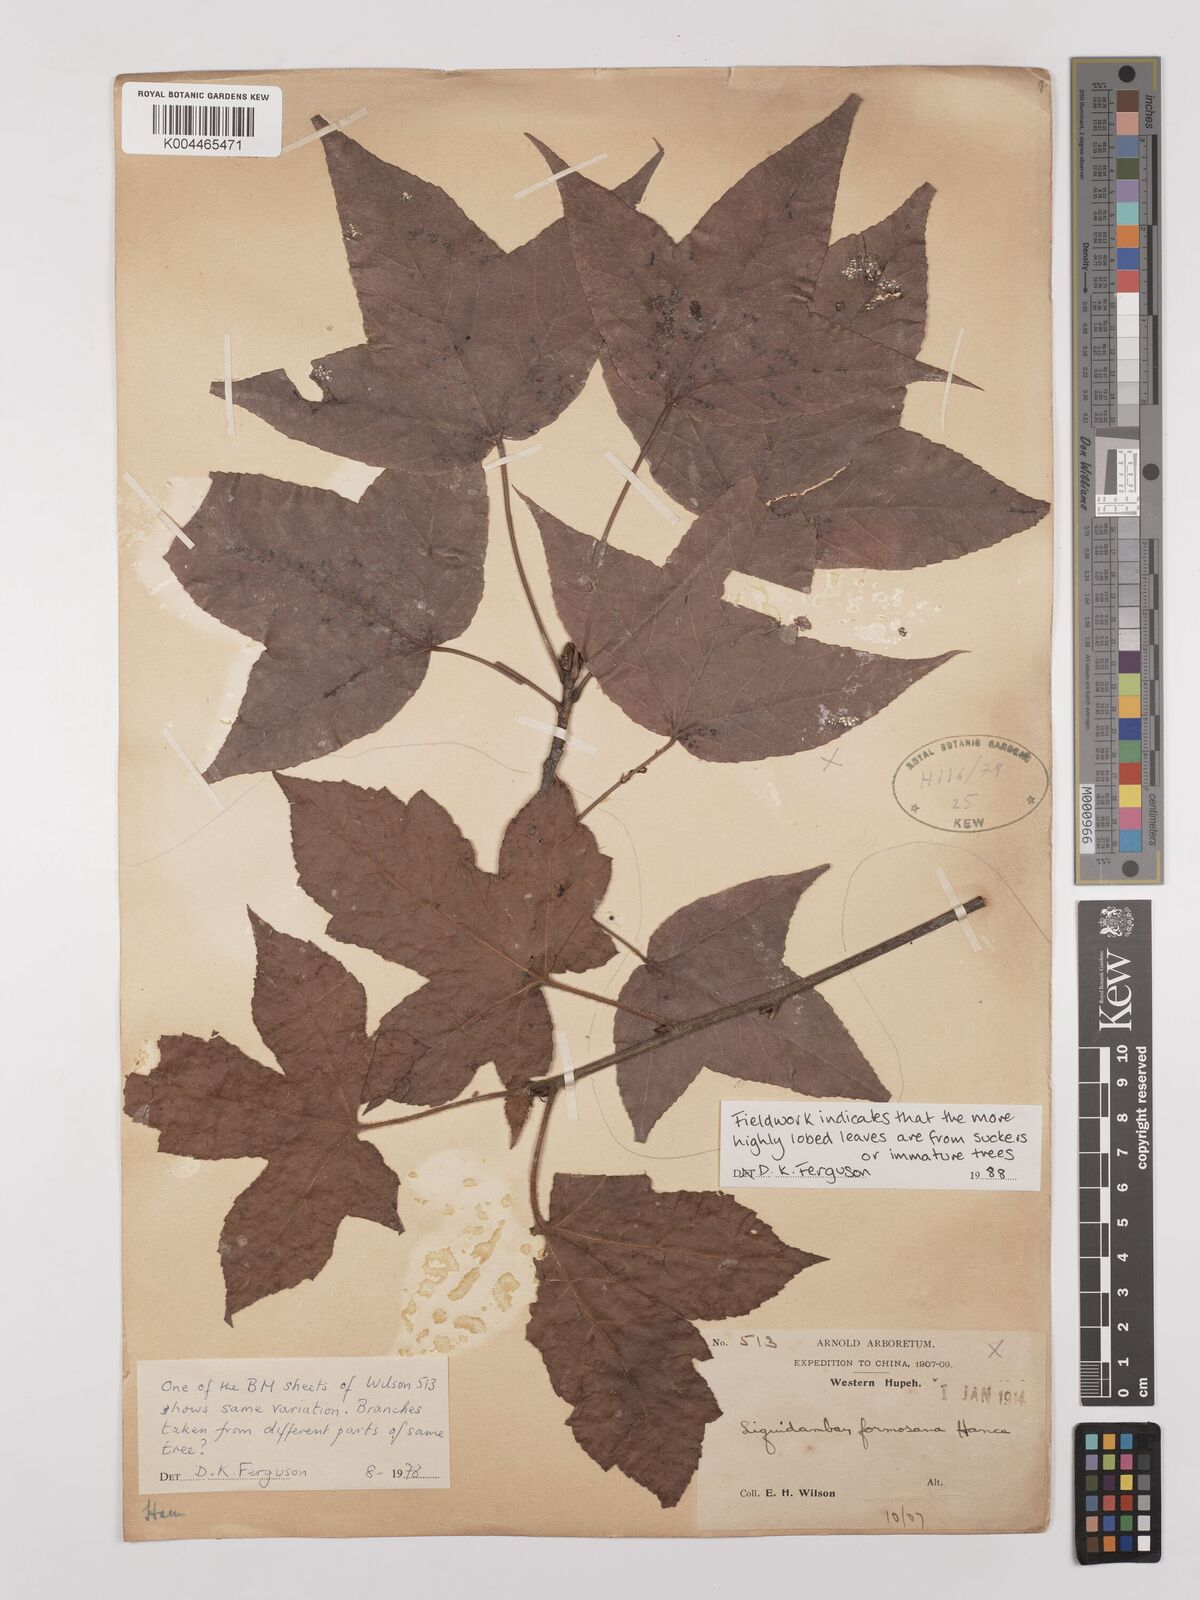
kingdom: Plantae
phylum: Tracheophyta
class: Magnoliopsida
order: Saxifragales
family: Altingiaceae
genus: Liquidambar
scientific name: Liquidambar formosana
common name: Chinese sweet gum
